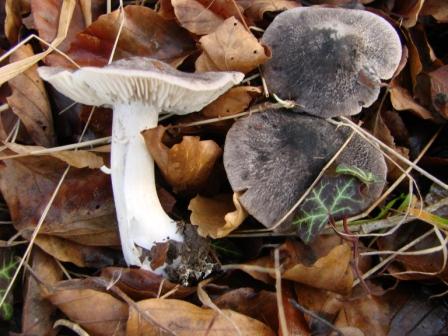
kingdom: Fungi
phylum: Basidiomycota
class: Agaricomycetes
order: Agaricales
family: Tricholomataceae
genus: Tricholoma
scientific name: Tricholoma orirubens
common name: rødbladet ridderhat
